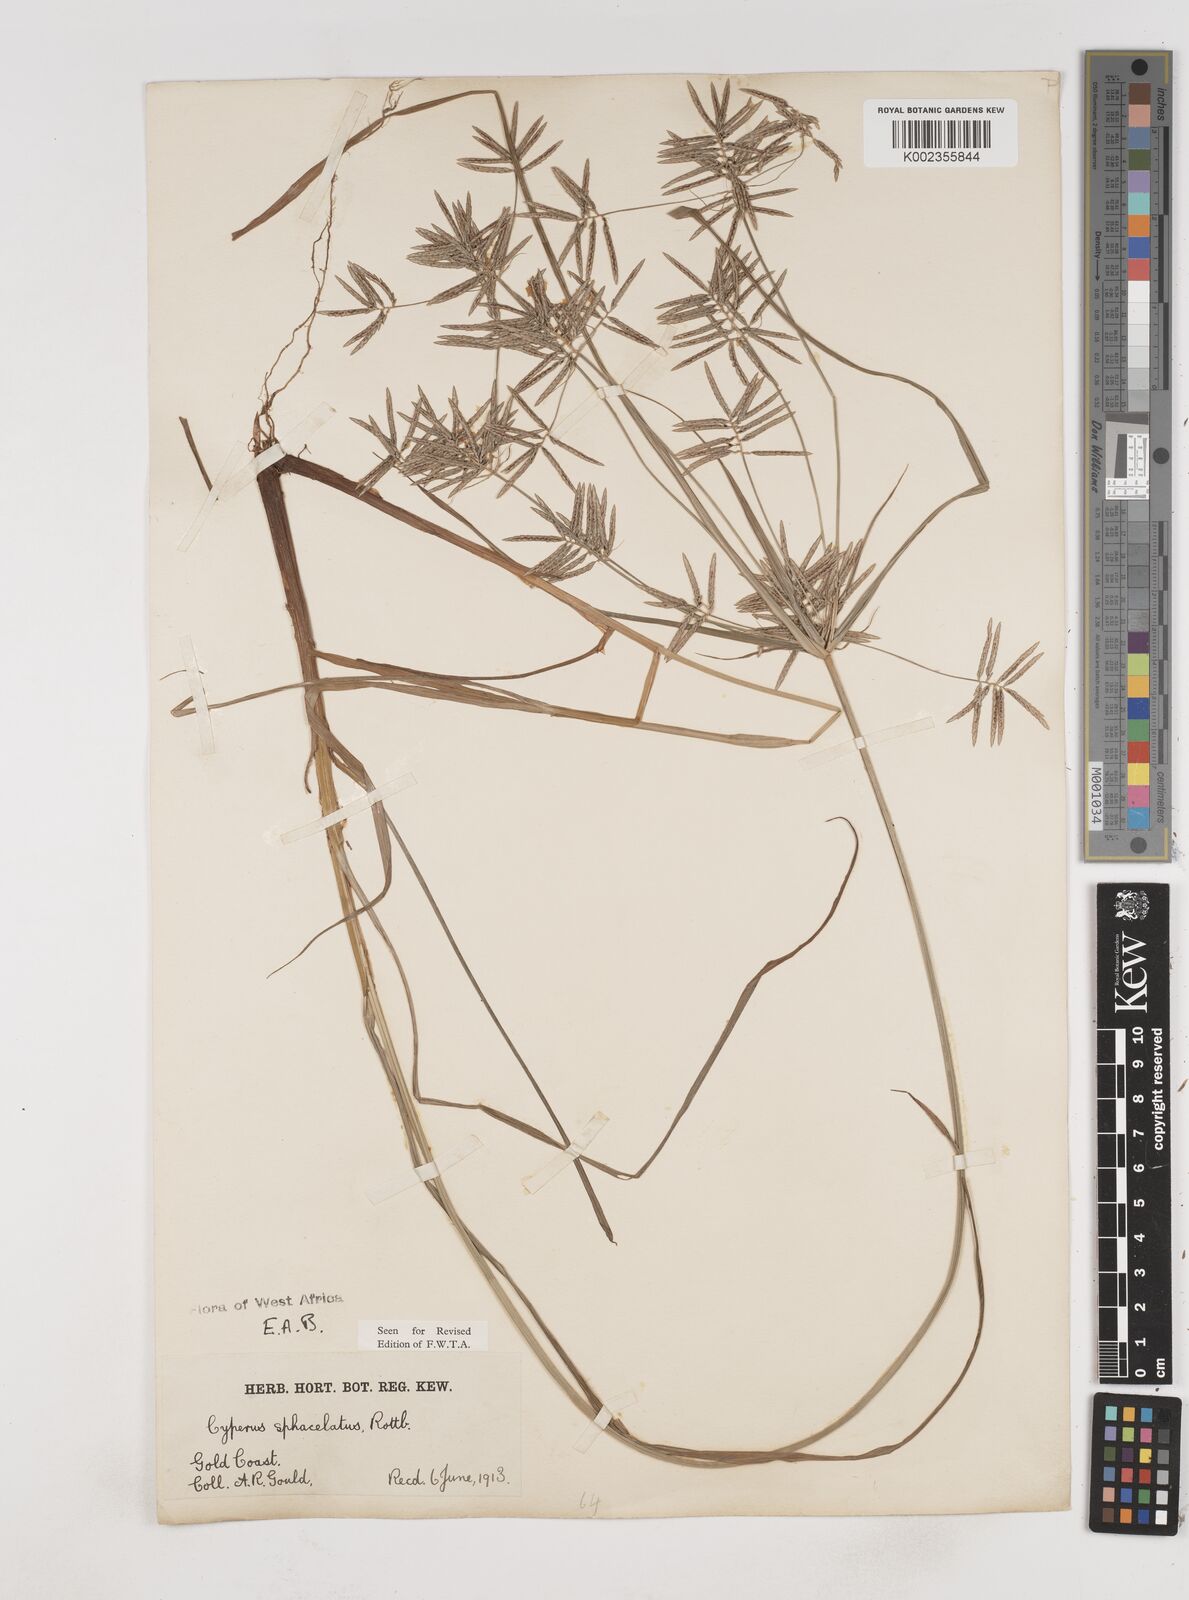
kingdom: Plantae
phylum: Tracheophyta
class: Liliopsida
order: Poales
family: Cyperaceae
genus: Cyperus
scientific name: Cyperus sphacelatus
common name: Roadside flatsedge
